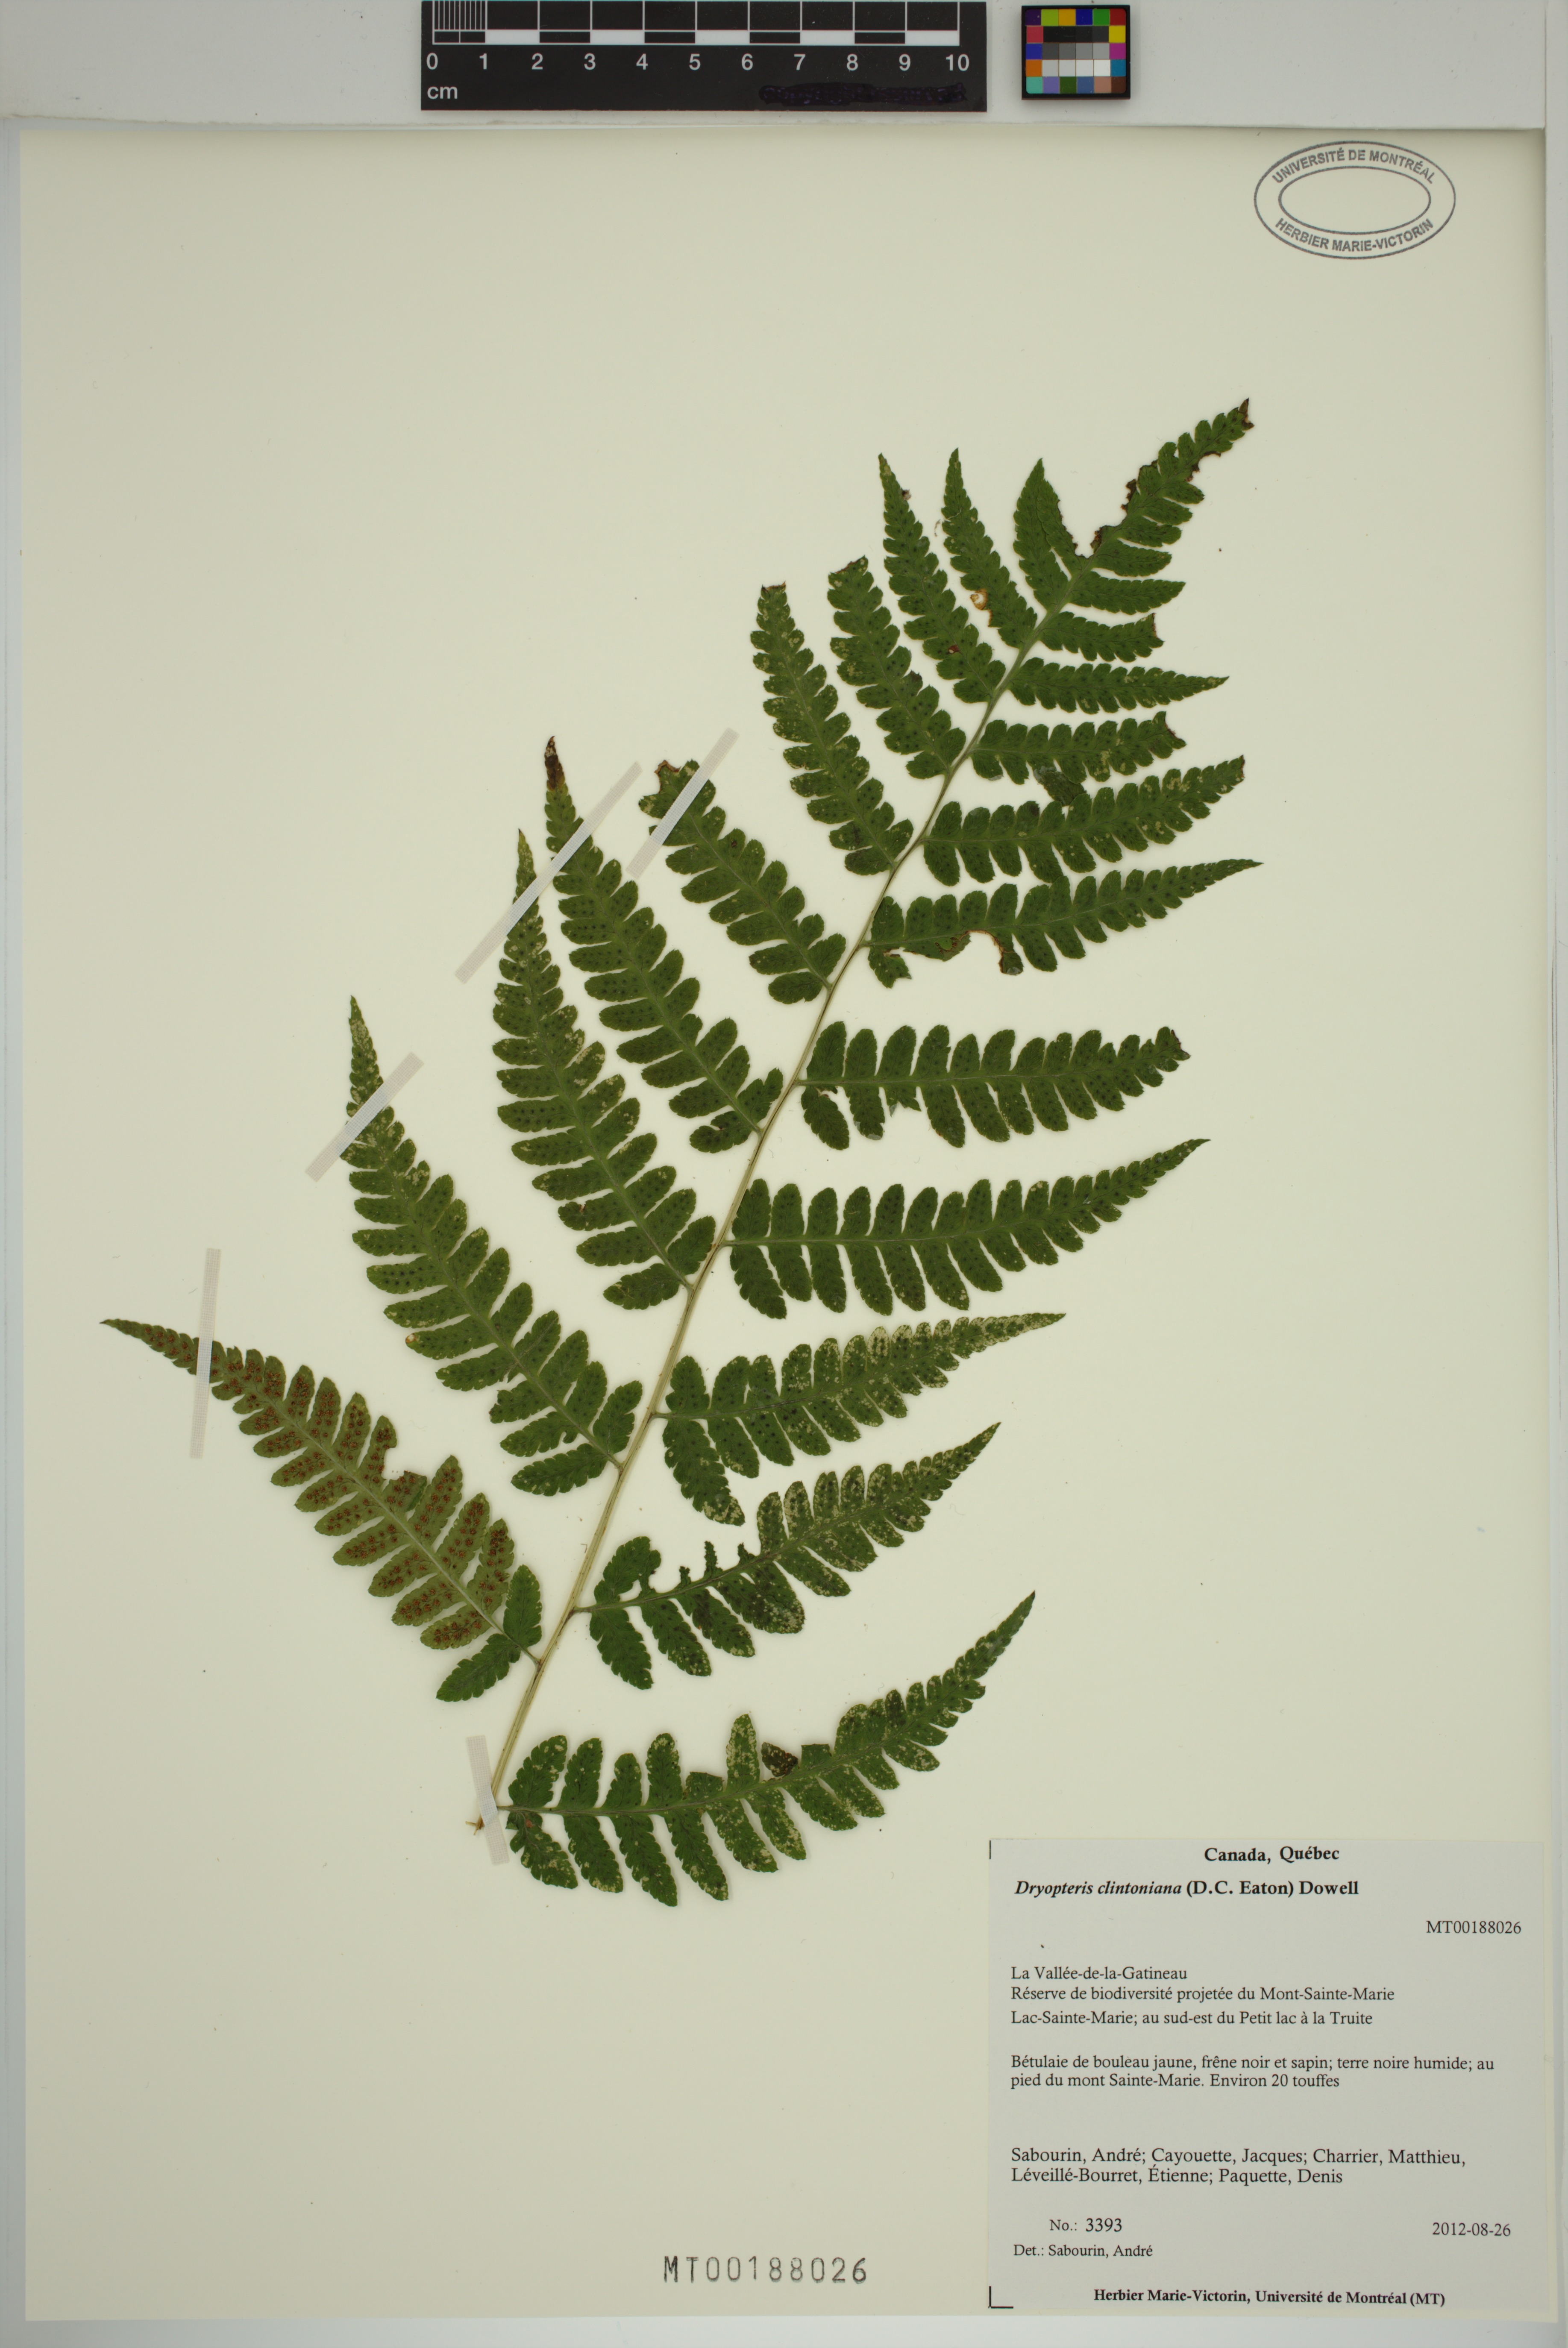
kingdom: Plantae
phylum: Tracheophyta
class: Polypodiopsida
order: Polypodiales
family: Dryopteridaceae
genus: Dryopteris
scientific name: Dryopteris clintoniana
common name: Clinton's wood fern
